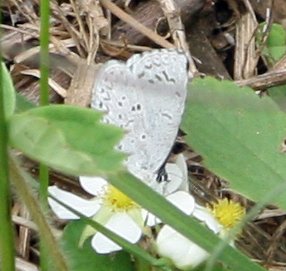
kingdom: Animalia
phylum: Arthropoda
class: Insecta
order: Lepidoptera
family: Lycaenidae
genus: Celastrina
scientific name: Celastrina
